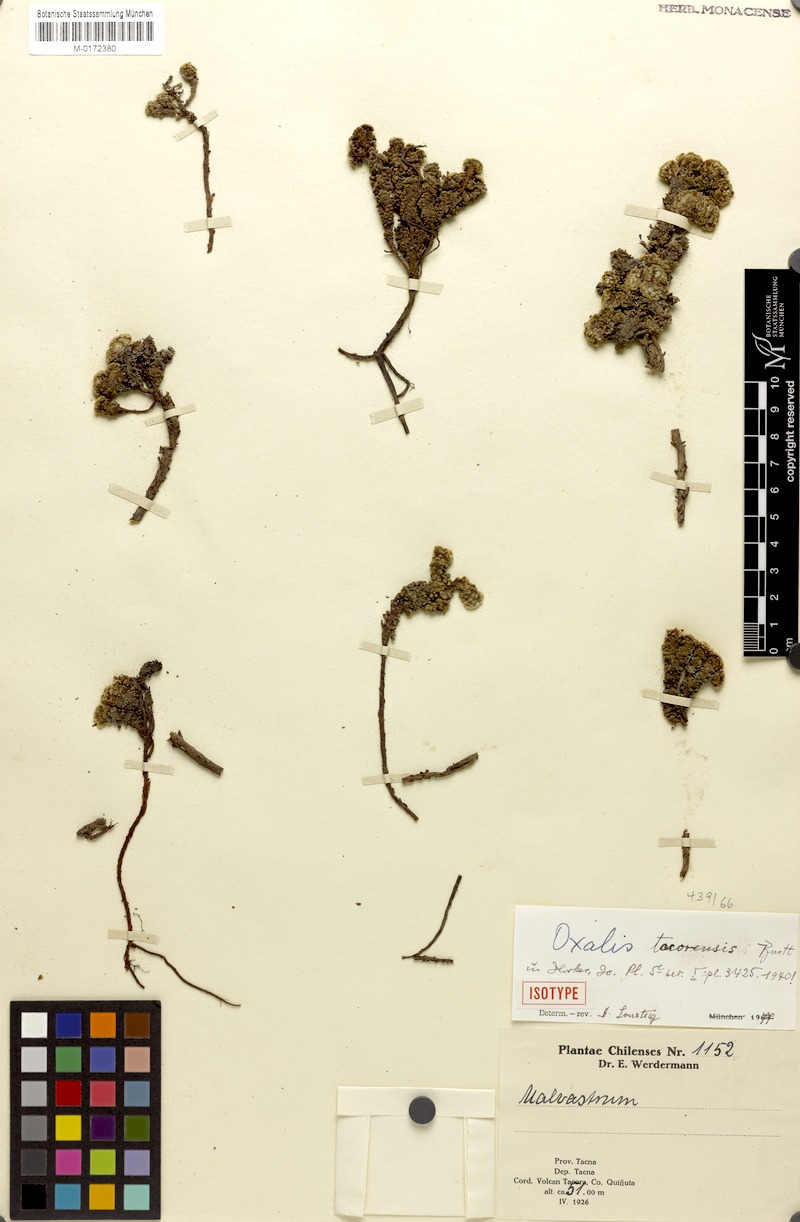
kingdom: Plantae
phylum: Tracheophyta
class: Magnoliopsida
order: Oxalidales
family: Oxalidaceae
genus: Oxalis
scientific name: Oxalis tacorensis
